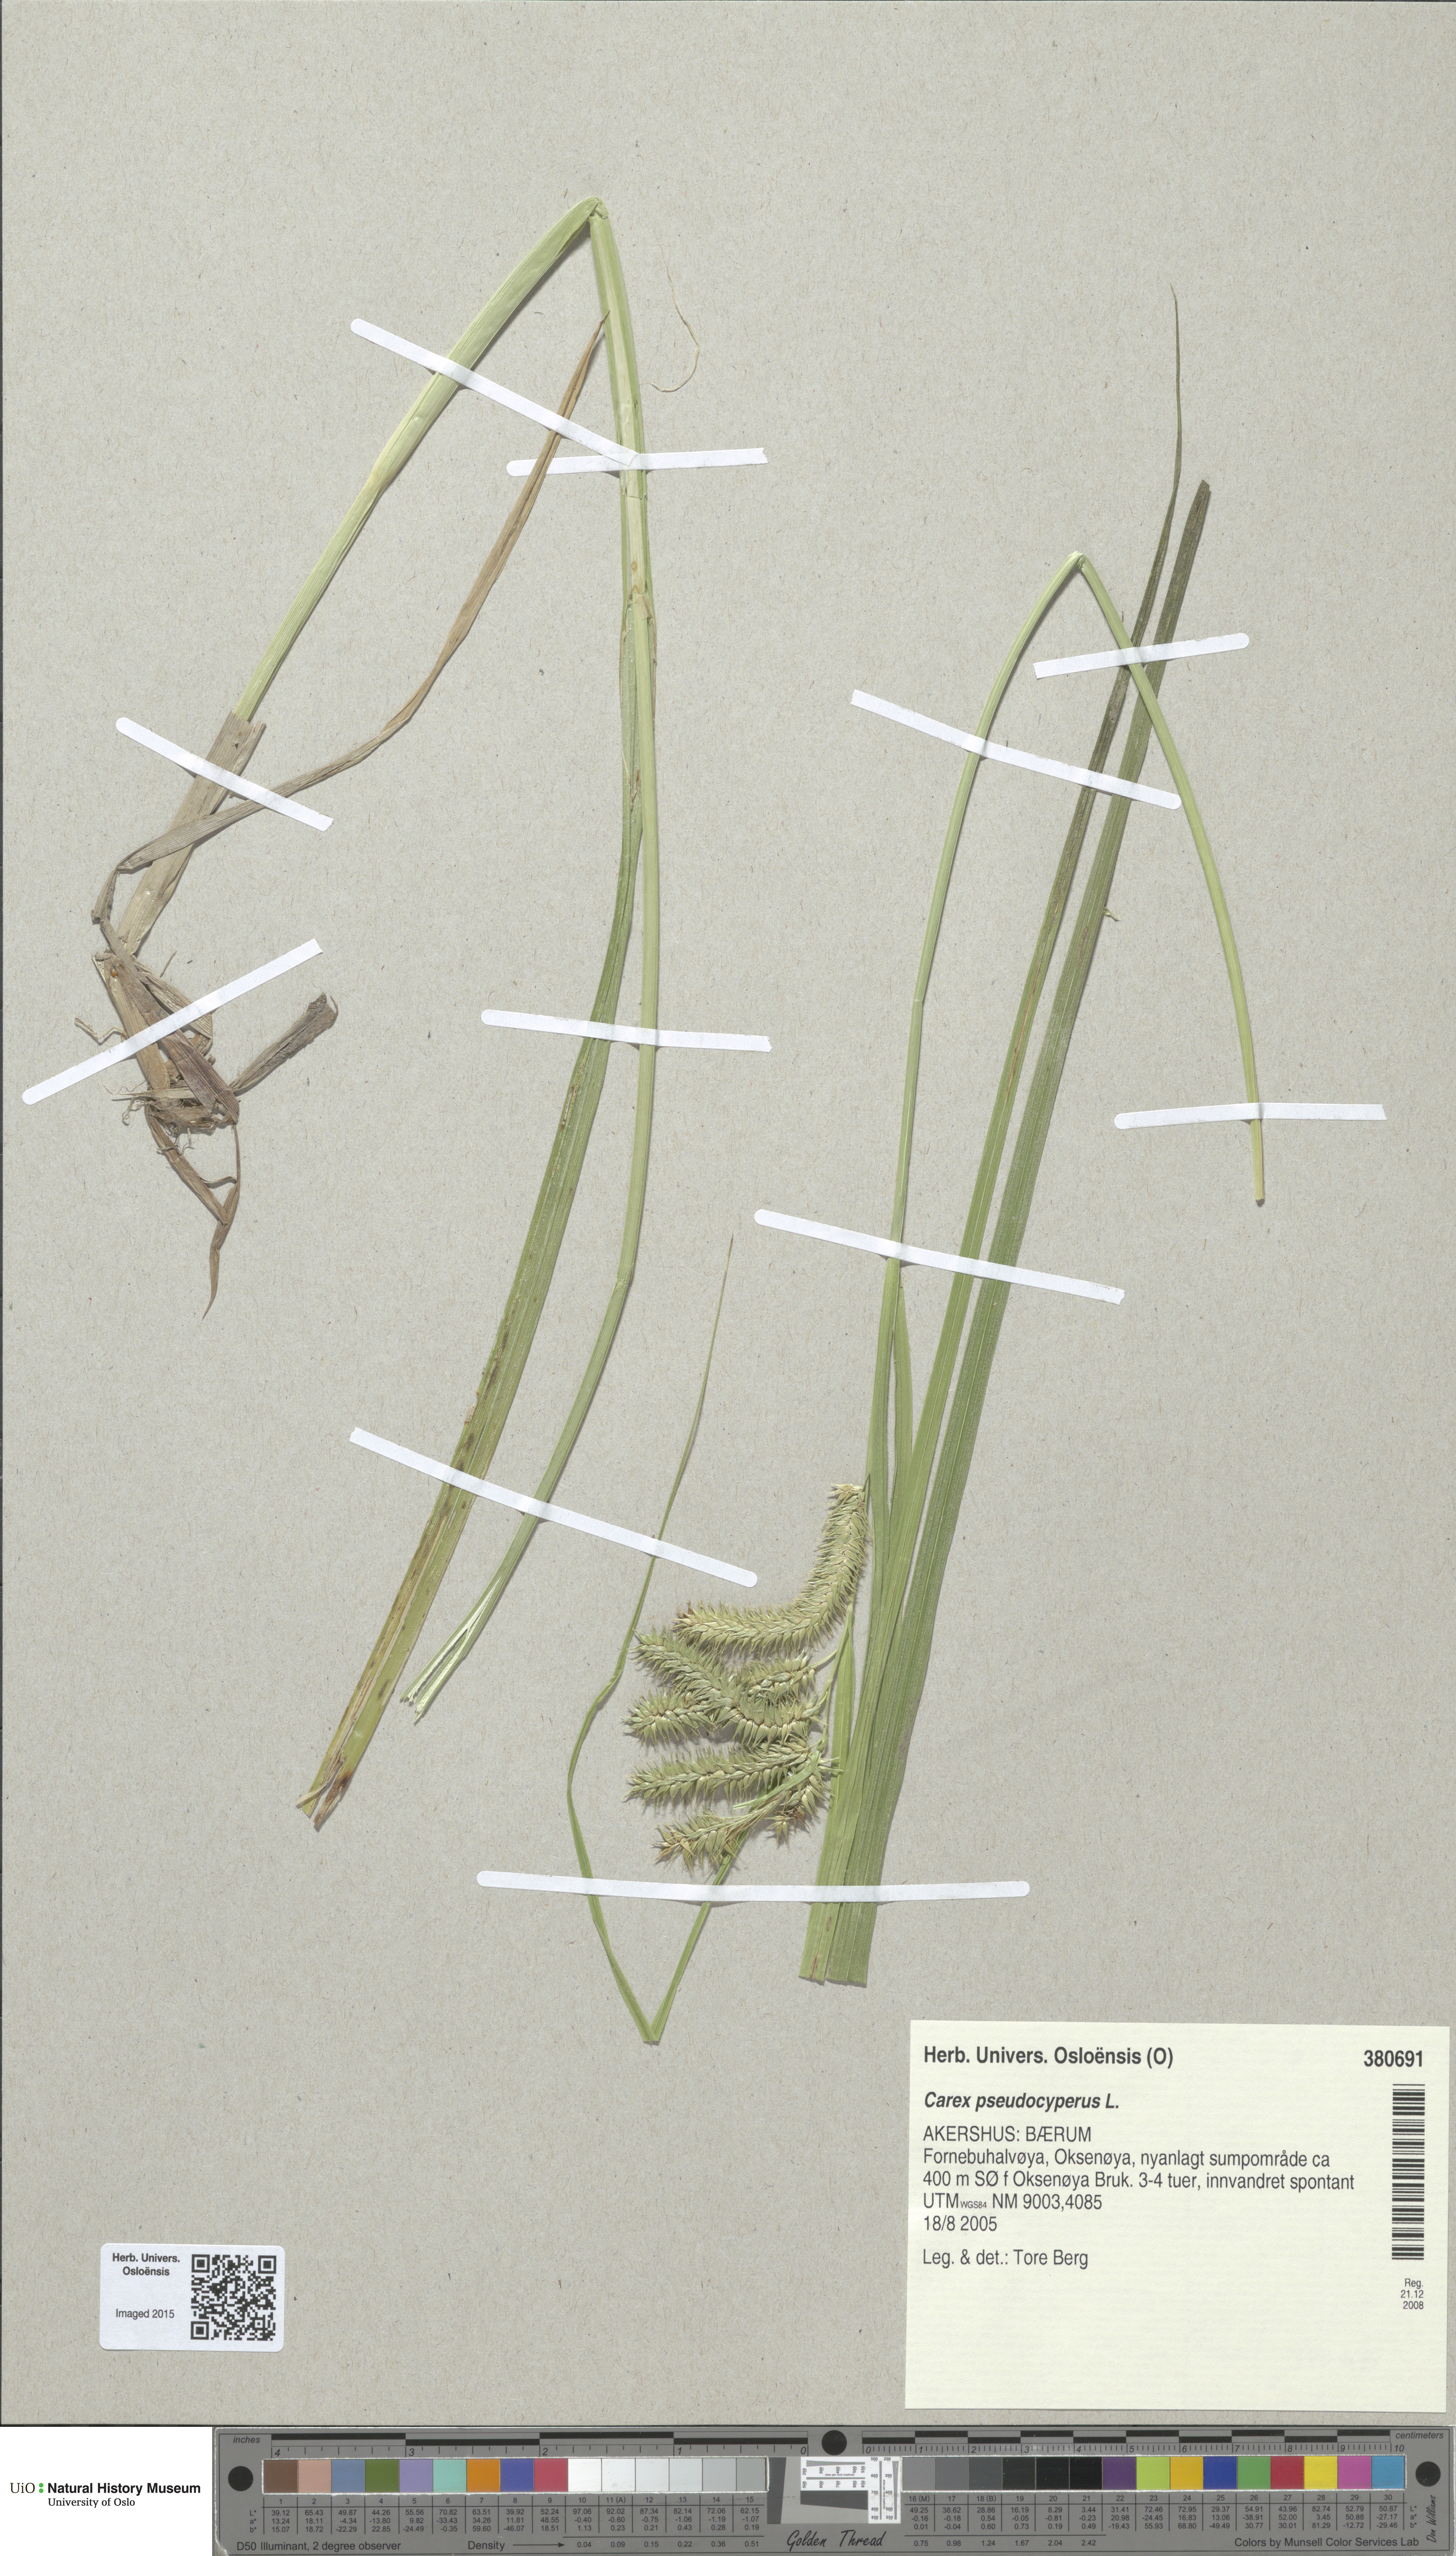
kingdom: Plantae
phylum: Tracheophyta
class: Liliopsida
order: Poales
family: Cyperaceae
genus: Carex
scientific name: Carex pseudocyperus
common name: Cyperus sedge
